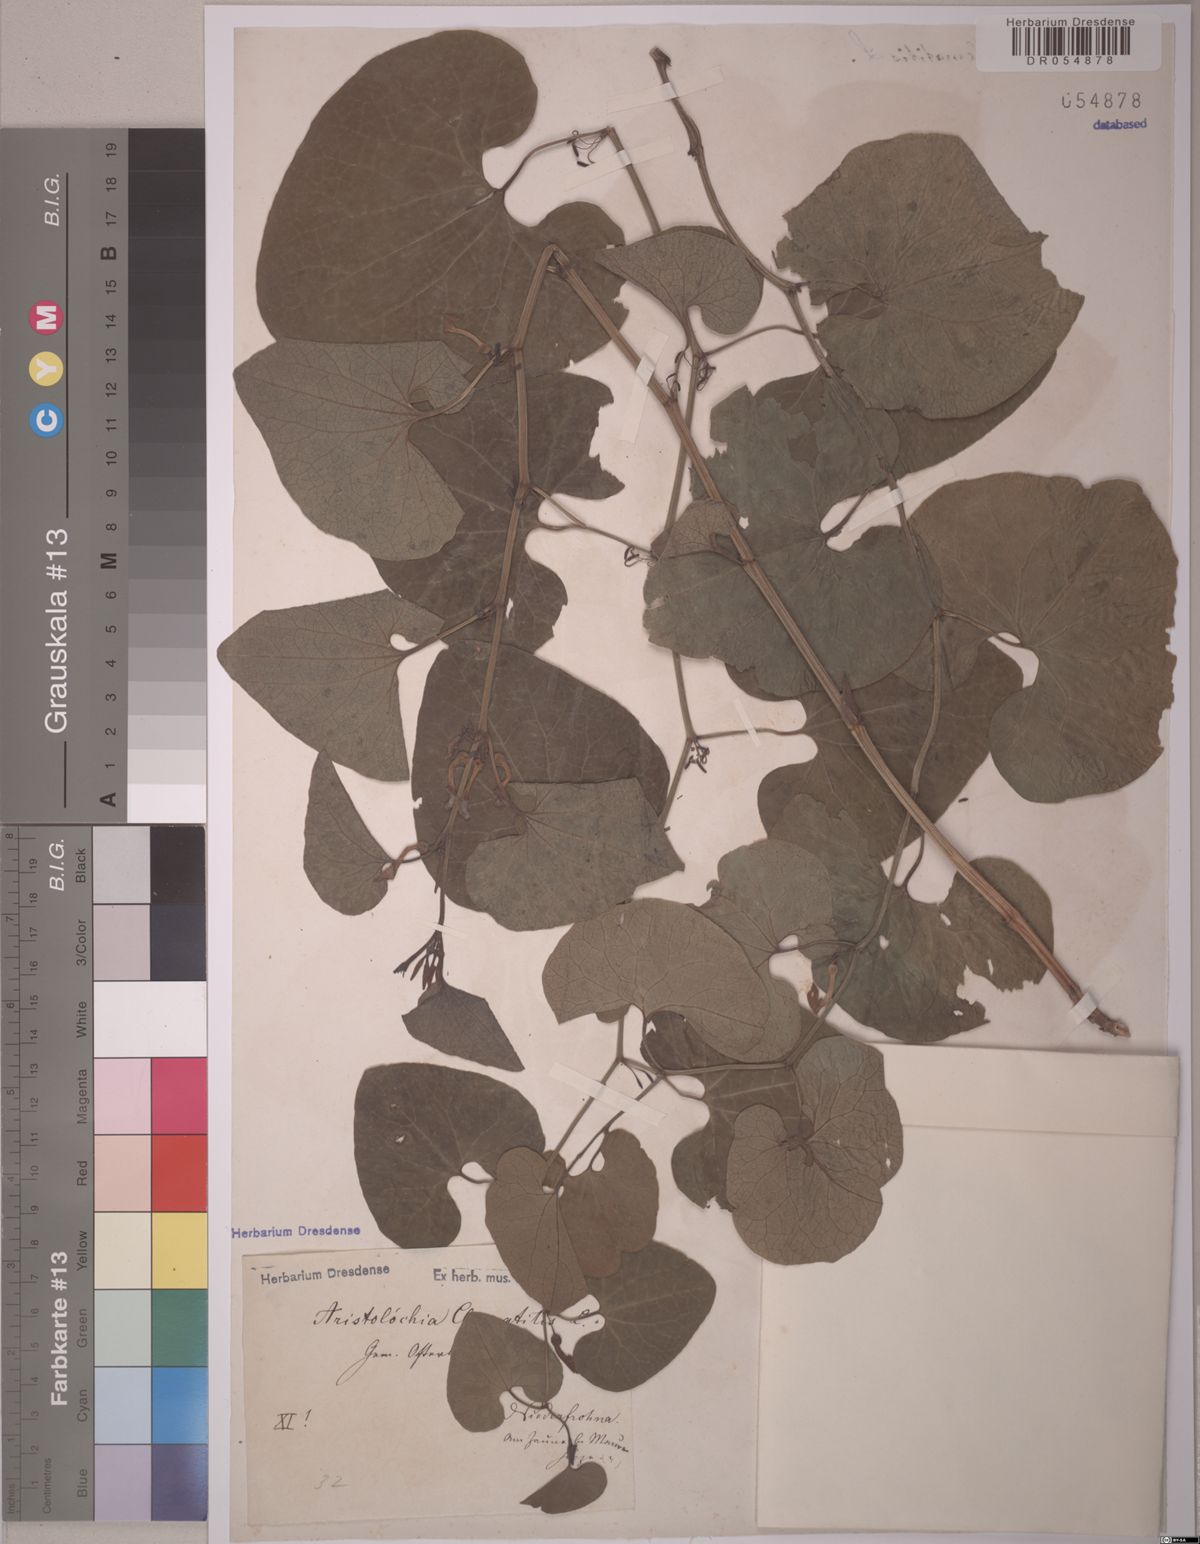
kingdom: Plantae
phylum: Tracheophyta
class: Magnoliopsida
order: Piperales
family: Aristolochiaceae
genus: Aristolochia
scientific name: Aristolochia clematitis
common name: Birthwort
